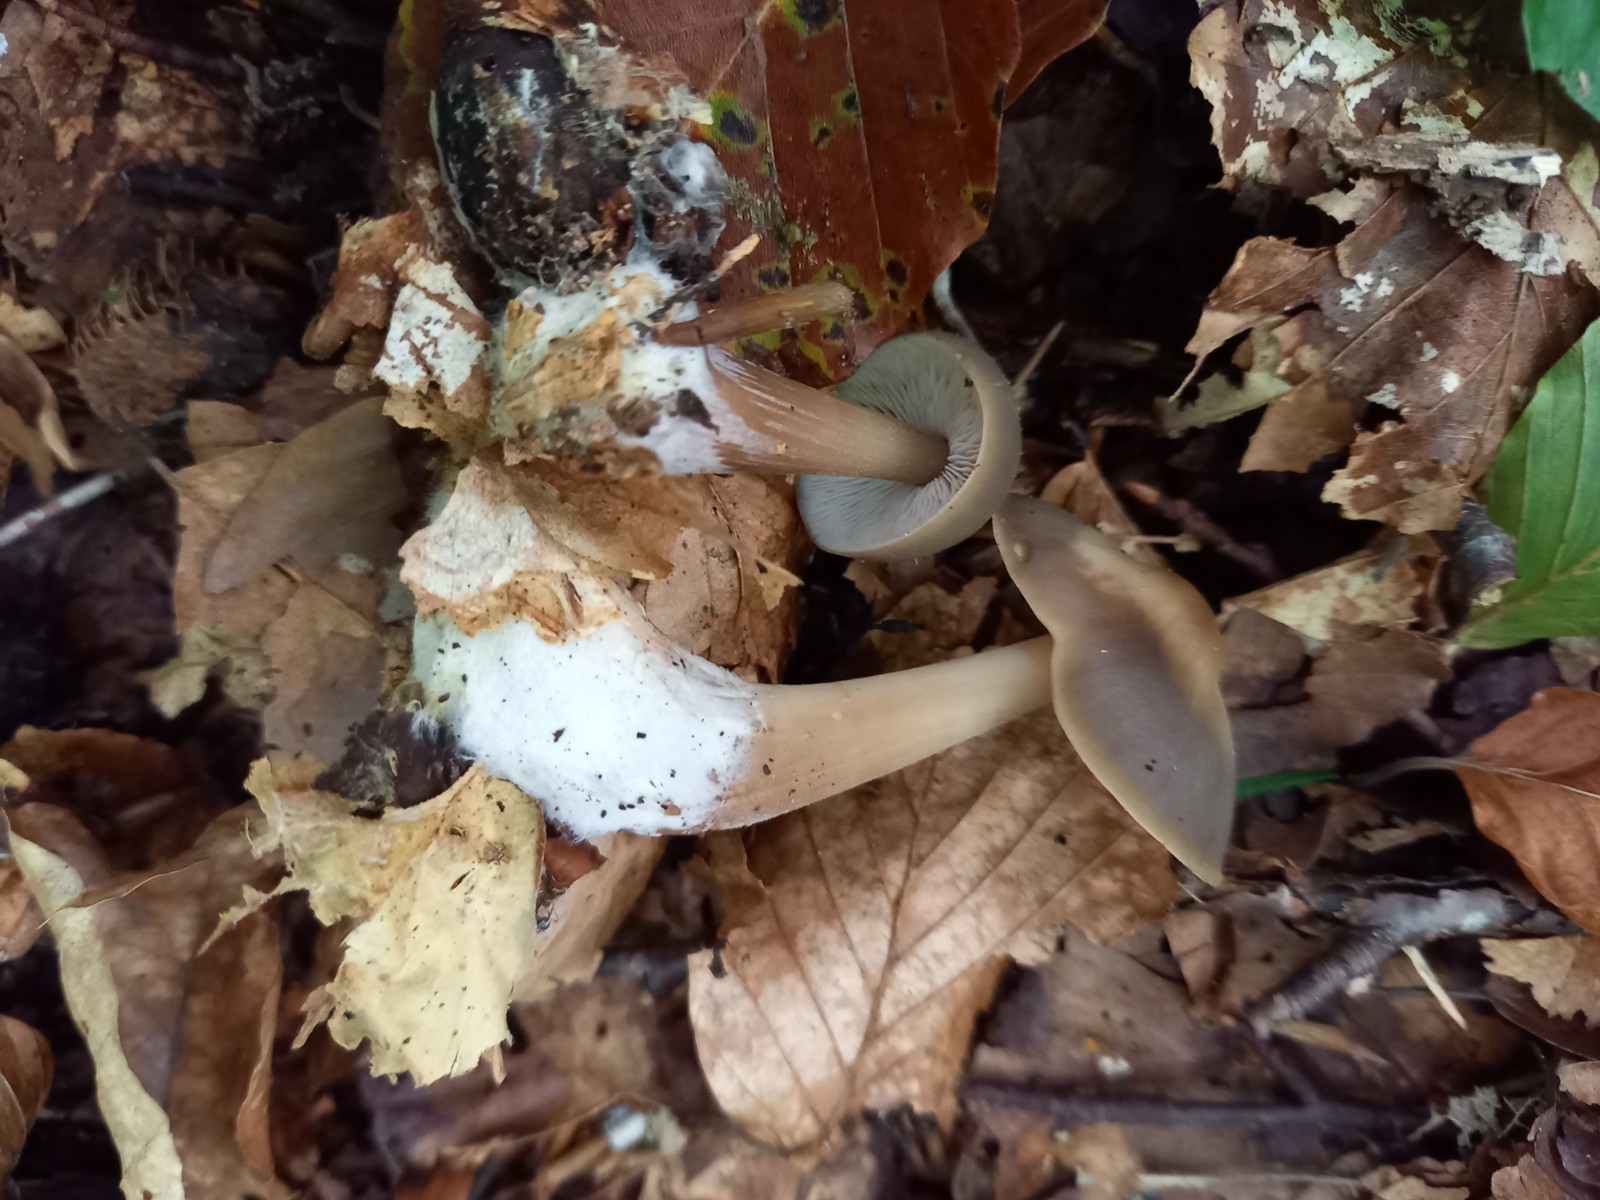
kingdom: Fungi
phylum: Basidiomycota
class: Agaricomycetes
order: Agaricales
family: Omphalotaceae
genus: Rhodocollybia
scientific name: Rhodocollybia asema
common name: horngrå fladhat
